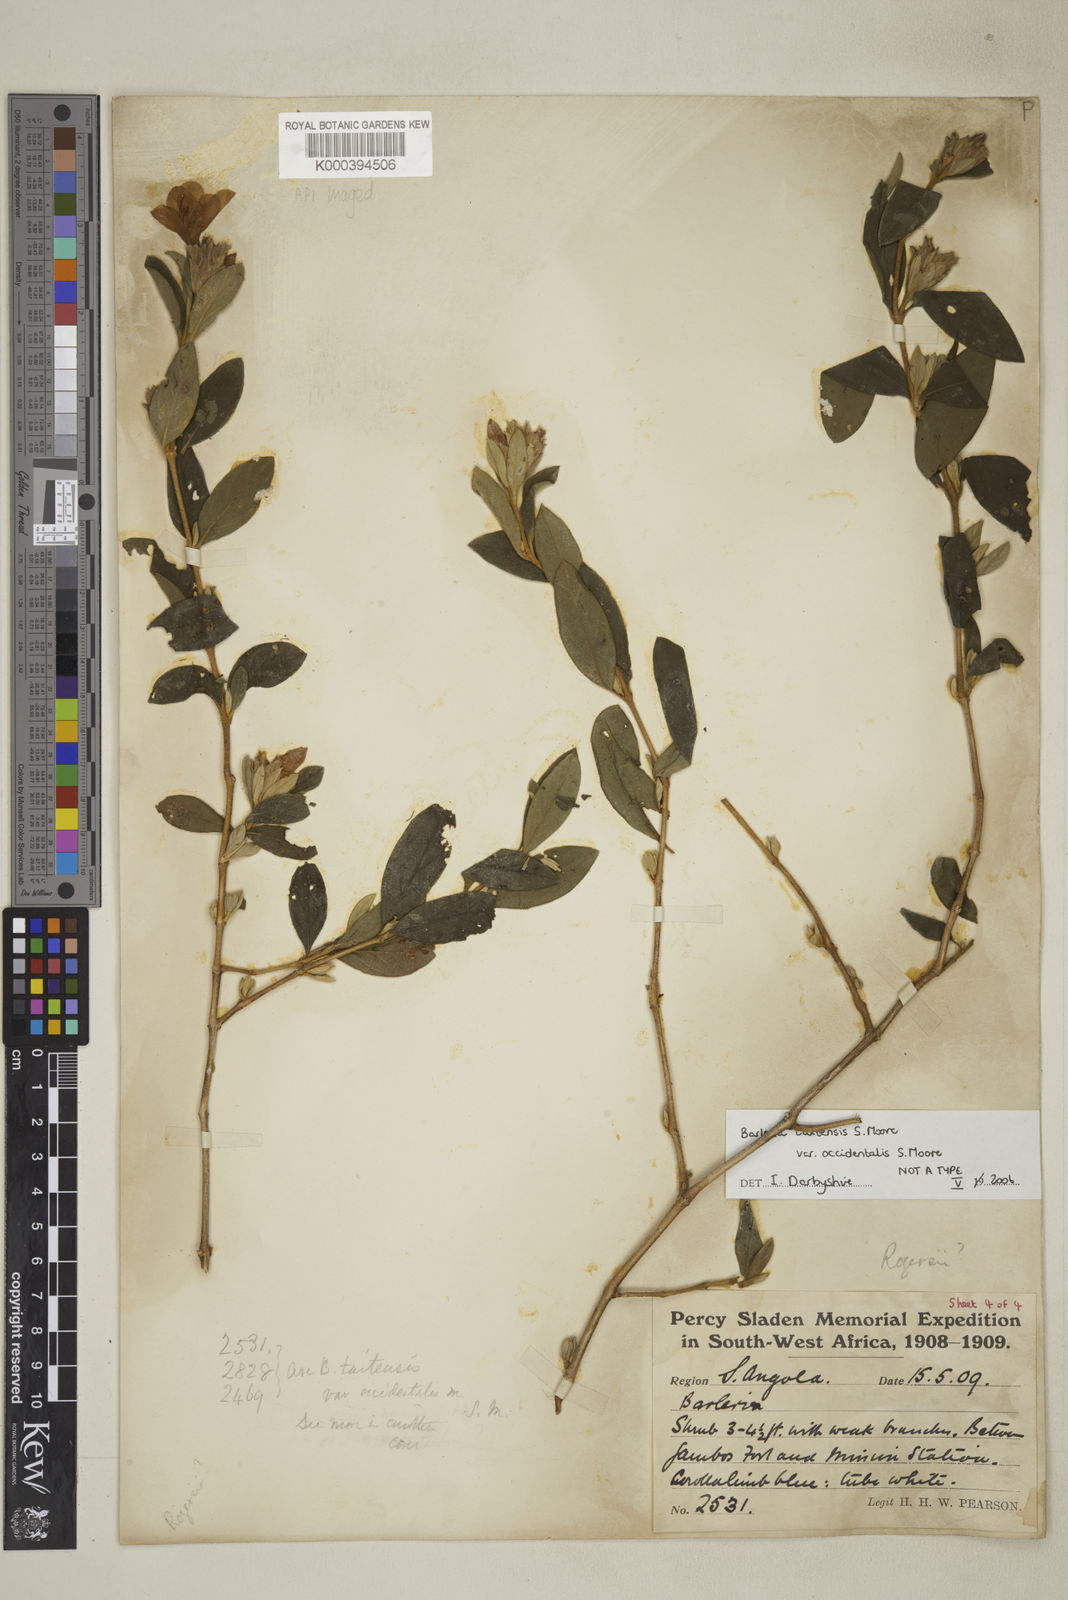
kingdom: Plantae
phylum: Tracheophyta
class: Magnoliopsida
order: Lamiales
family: Acanthaceae
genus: Barleria
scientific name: Barleria taitensis
